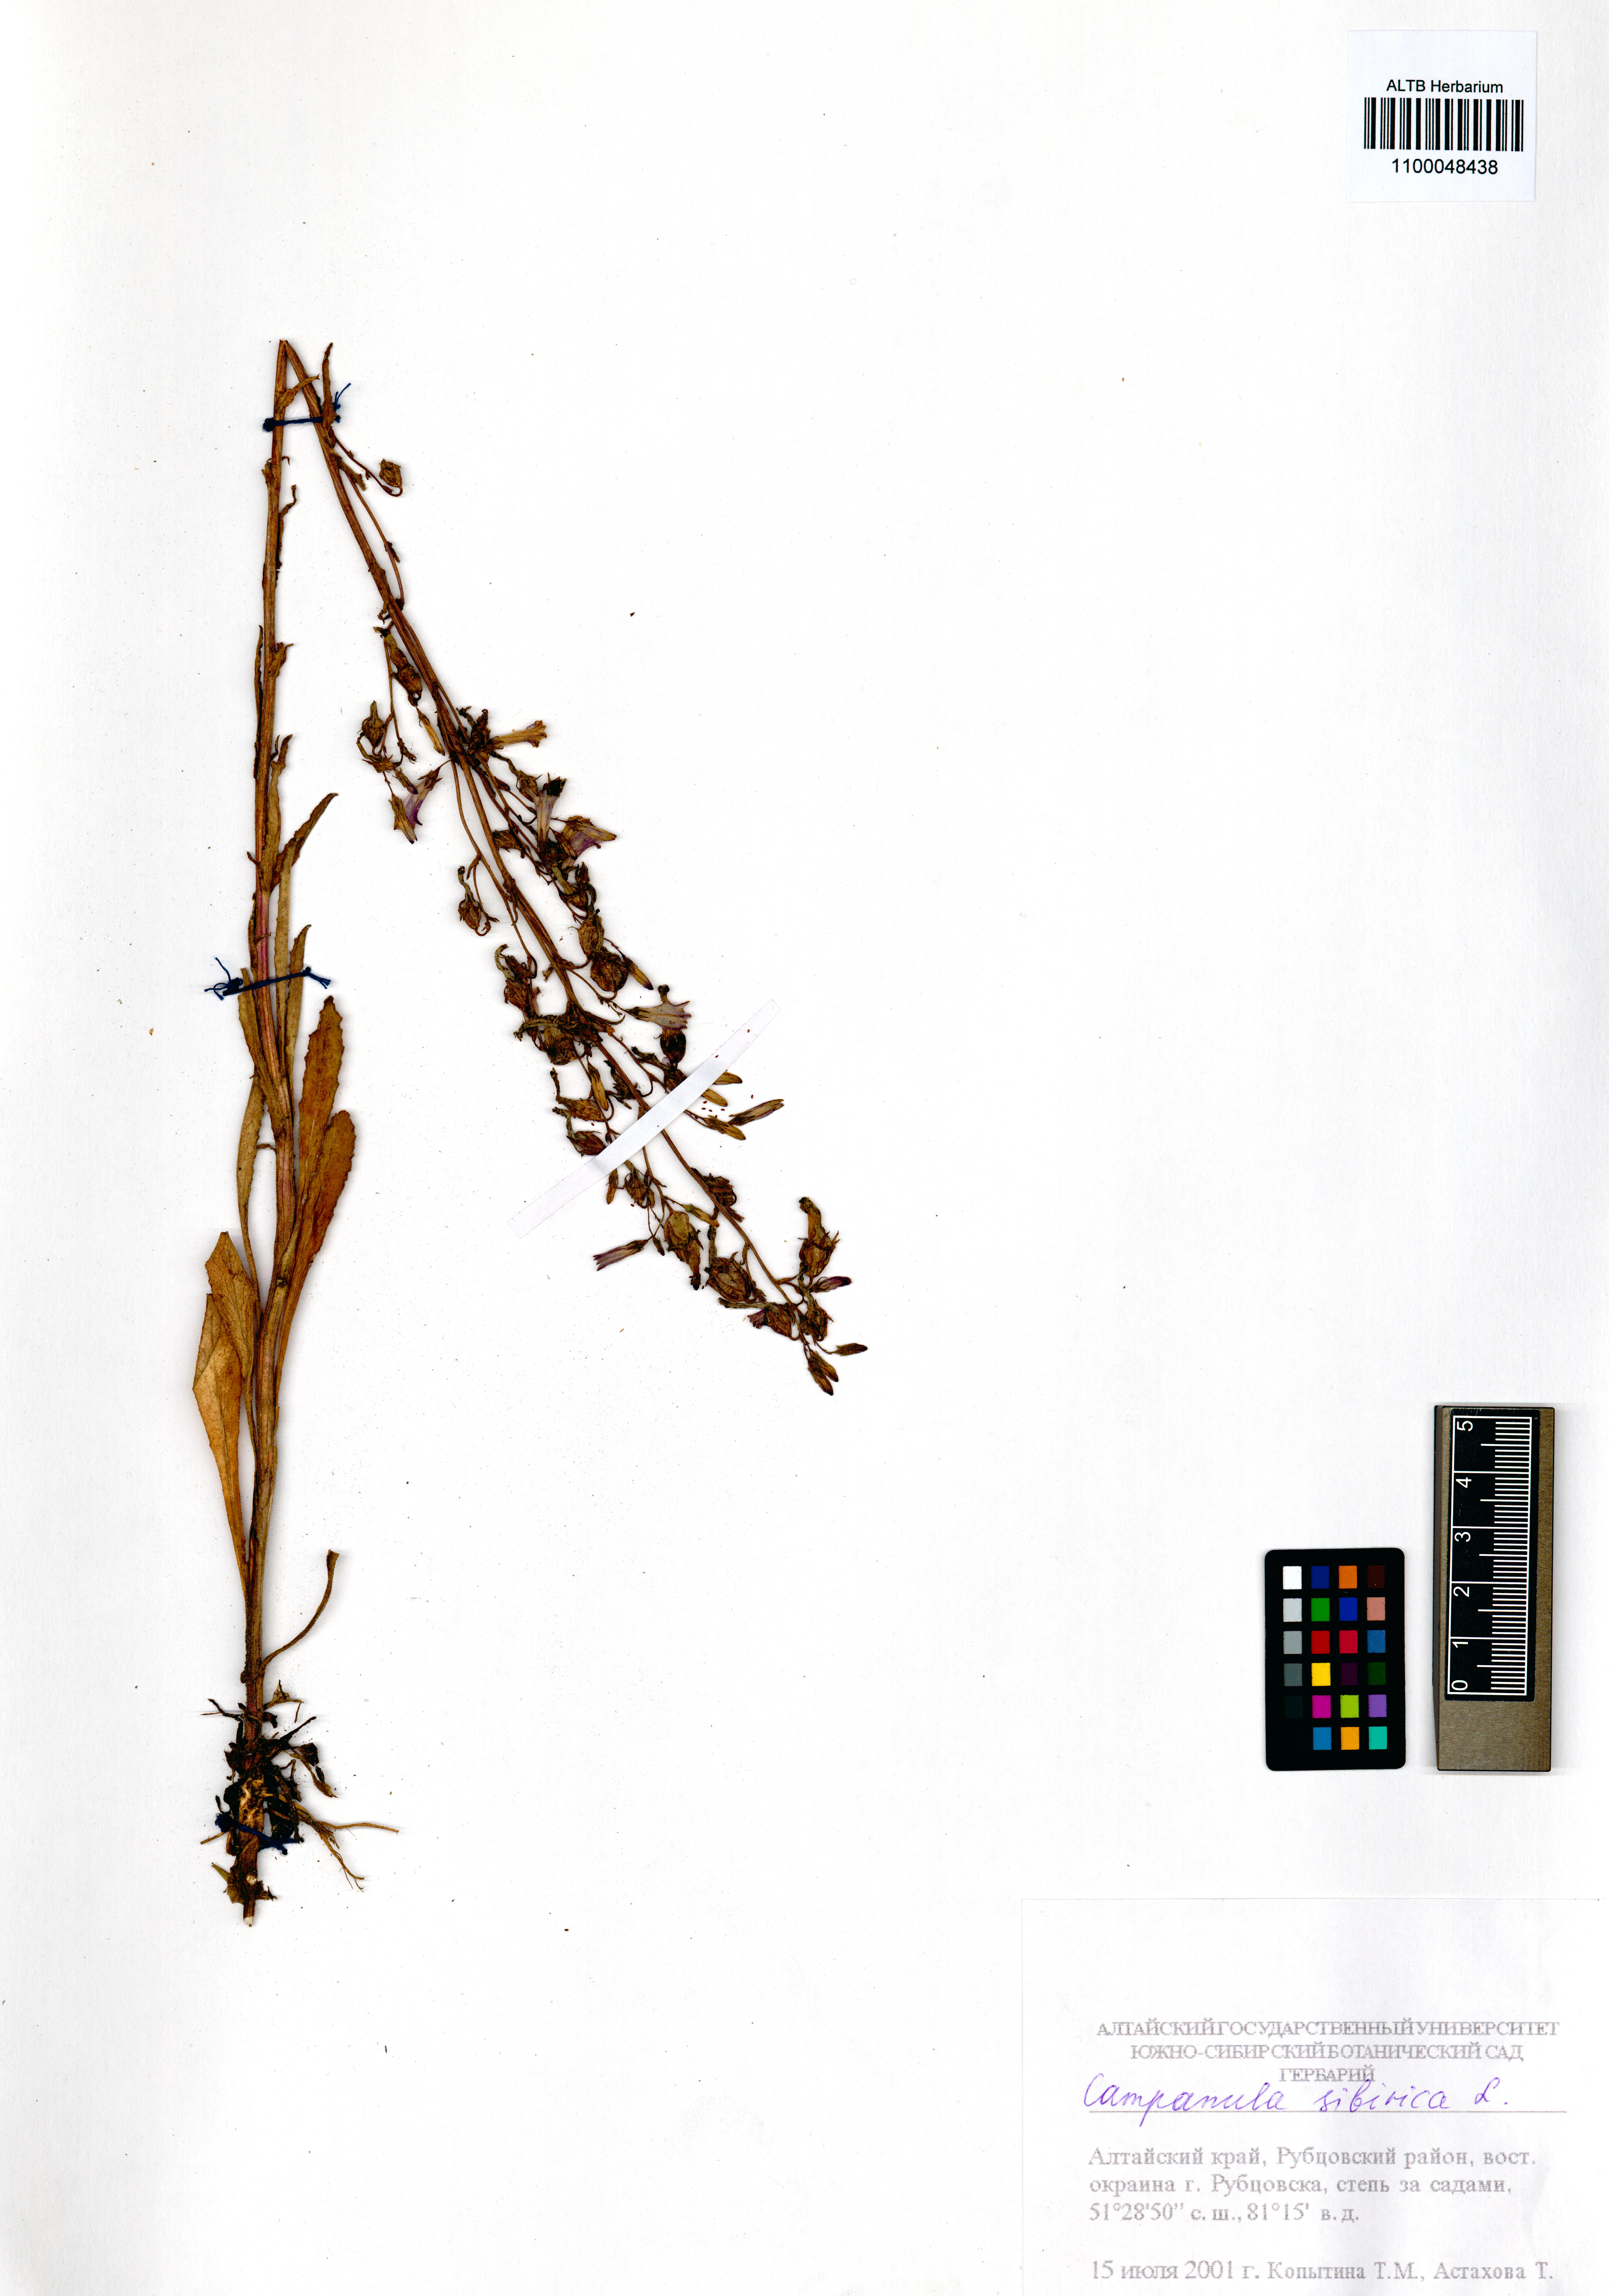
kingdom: Plantae
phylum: Tracheophyta
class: Magnoliopsida
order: Asterales
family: Campanulaceae
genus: Campanula
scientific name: Campanula sibirica
